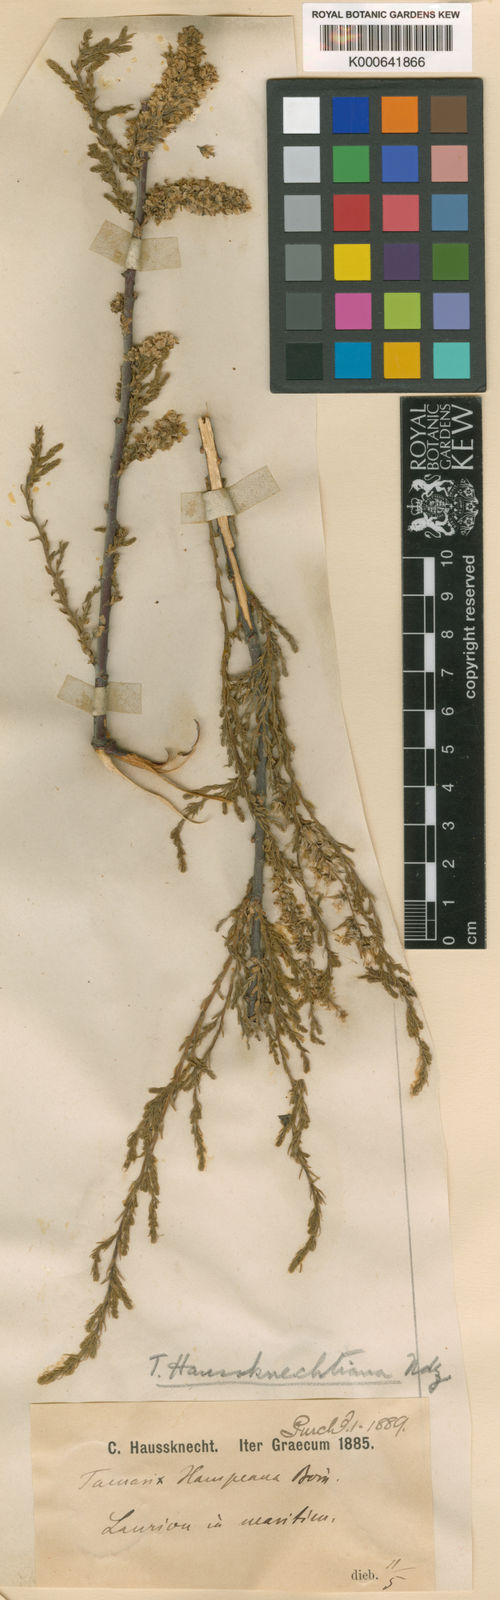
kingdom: Plantae
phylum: Tracheophyta
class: Magnoliopsida
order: Caryophyllales
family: Tamaricaceae
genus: Tamarix
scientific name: Tamarix hampeana
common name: Hampe’s tamarisk
